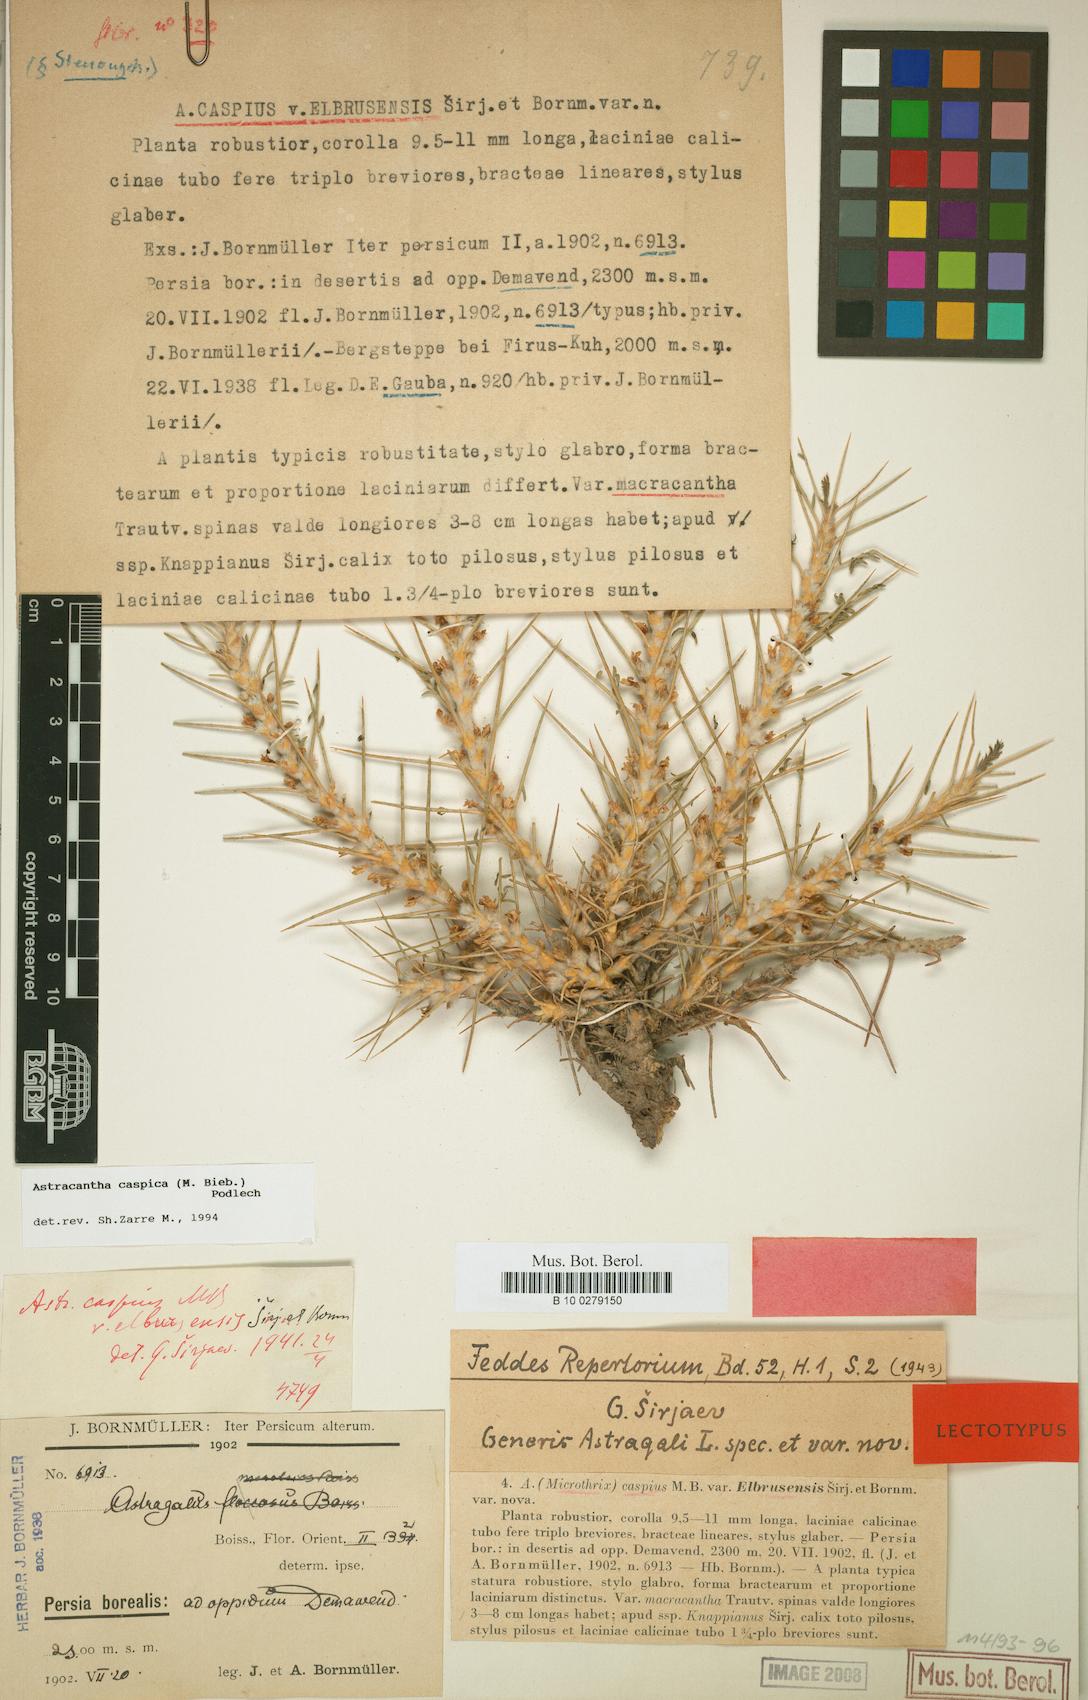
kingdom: Plantae
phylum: Tracheophyta
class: Magnoliopsida
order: Fabales
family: Fabaceae
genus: Astragalus
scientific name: Astragalus caspicus
